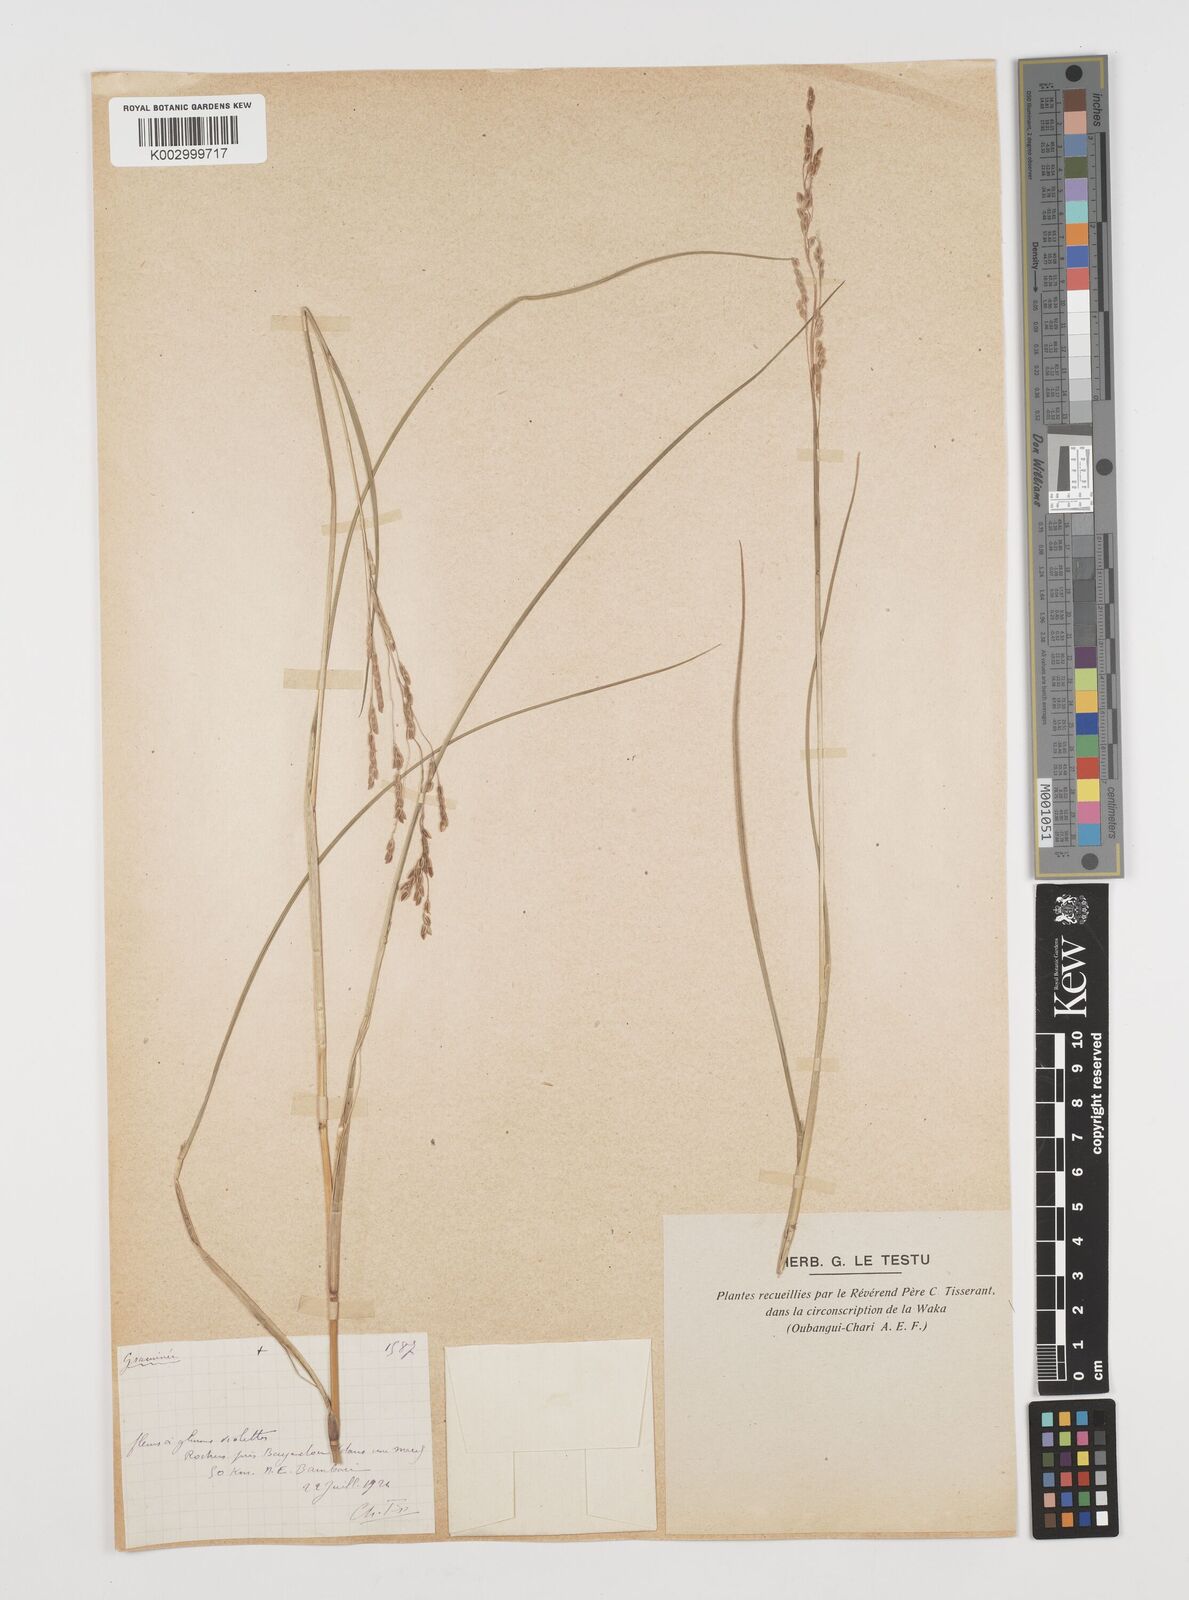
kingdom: Plantae
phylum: Tracheophyta
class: Liliopsida
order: Poales
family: Poaceae
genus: Leersia
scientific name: Leersia angustifolia
